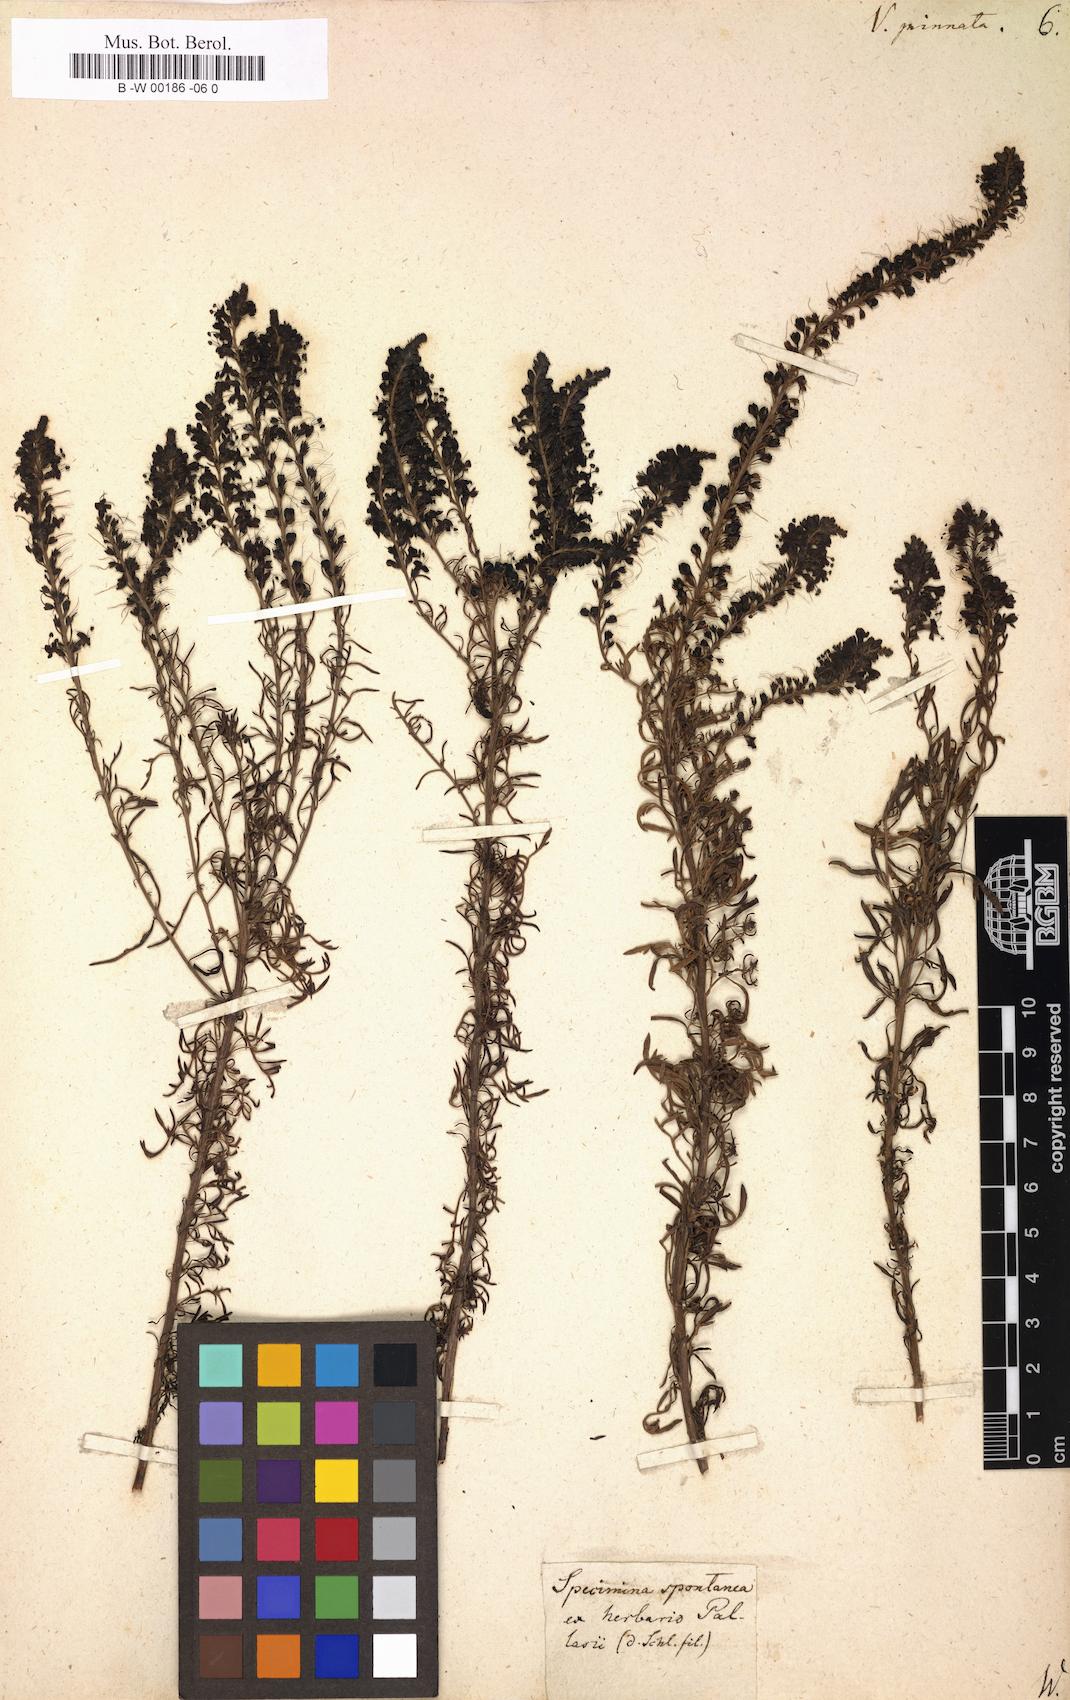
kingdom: Plantae
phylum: Tracheophyta
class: Magnoliopsida
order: Lamiales
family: Plantaginaceae
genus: Veronica
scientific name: Veronica pinnata
